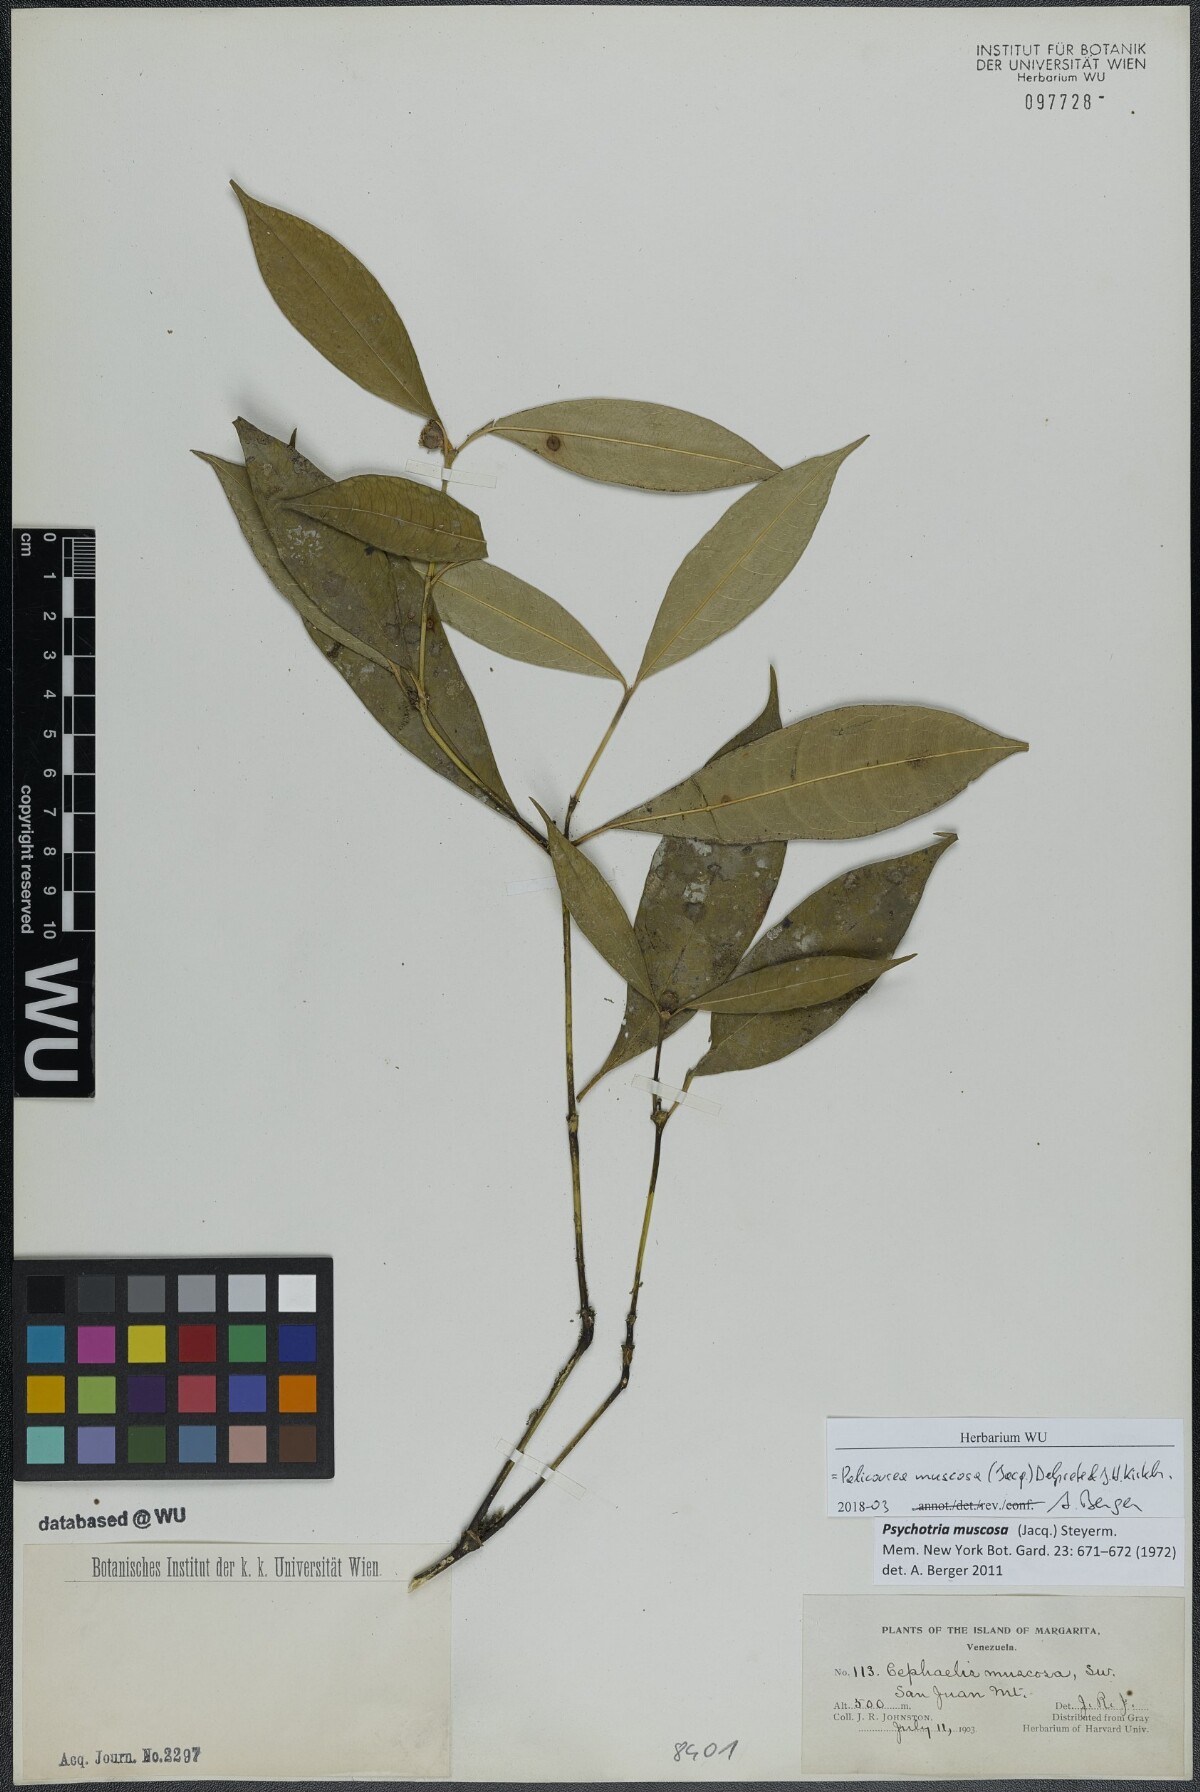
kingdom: Plantae
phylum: Tracheophyta
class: Magnoliopsida
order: Gentianales
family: Rubiaceae
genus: Palicourea
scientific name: Palicourea muscosa
